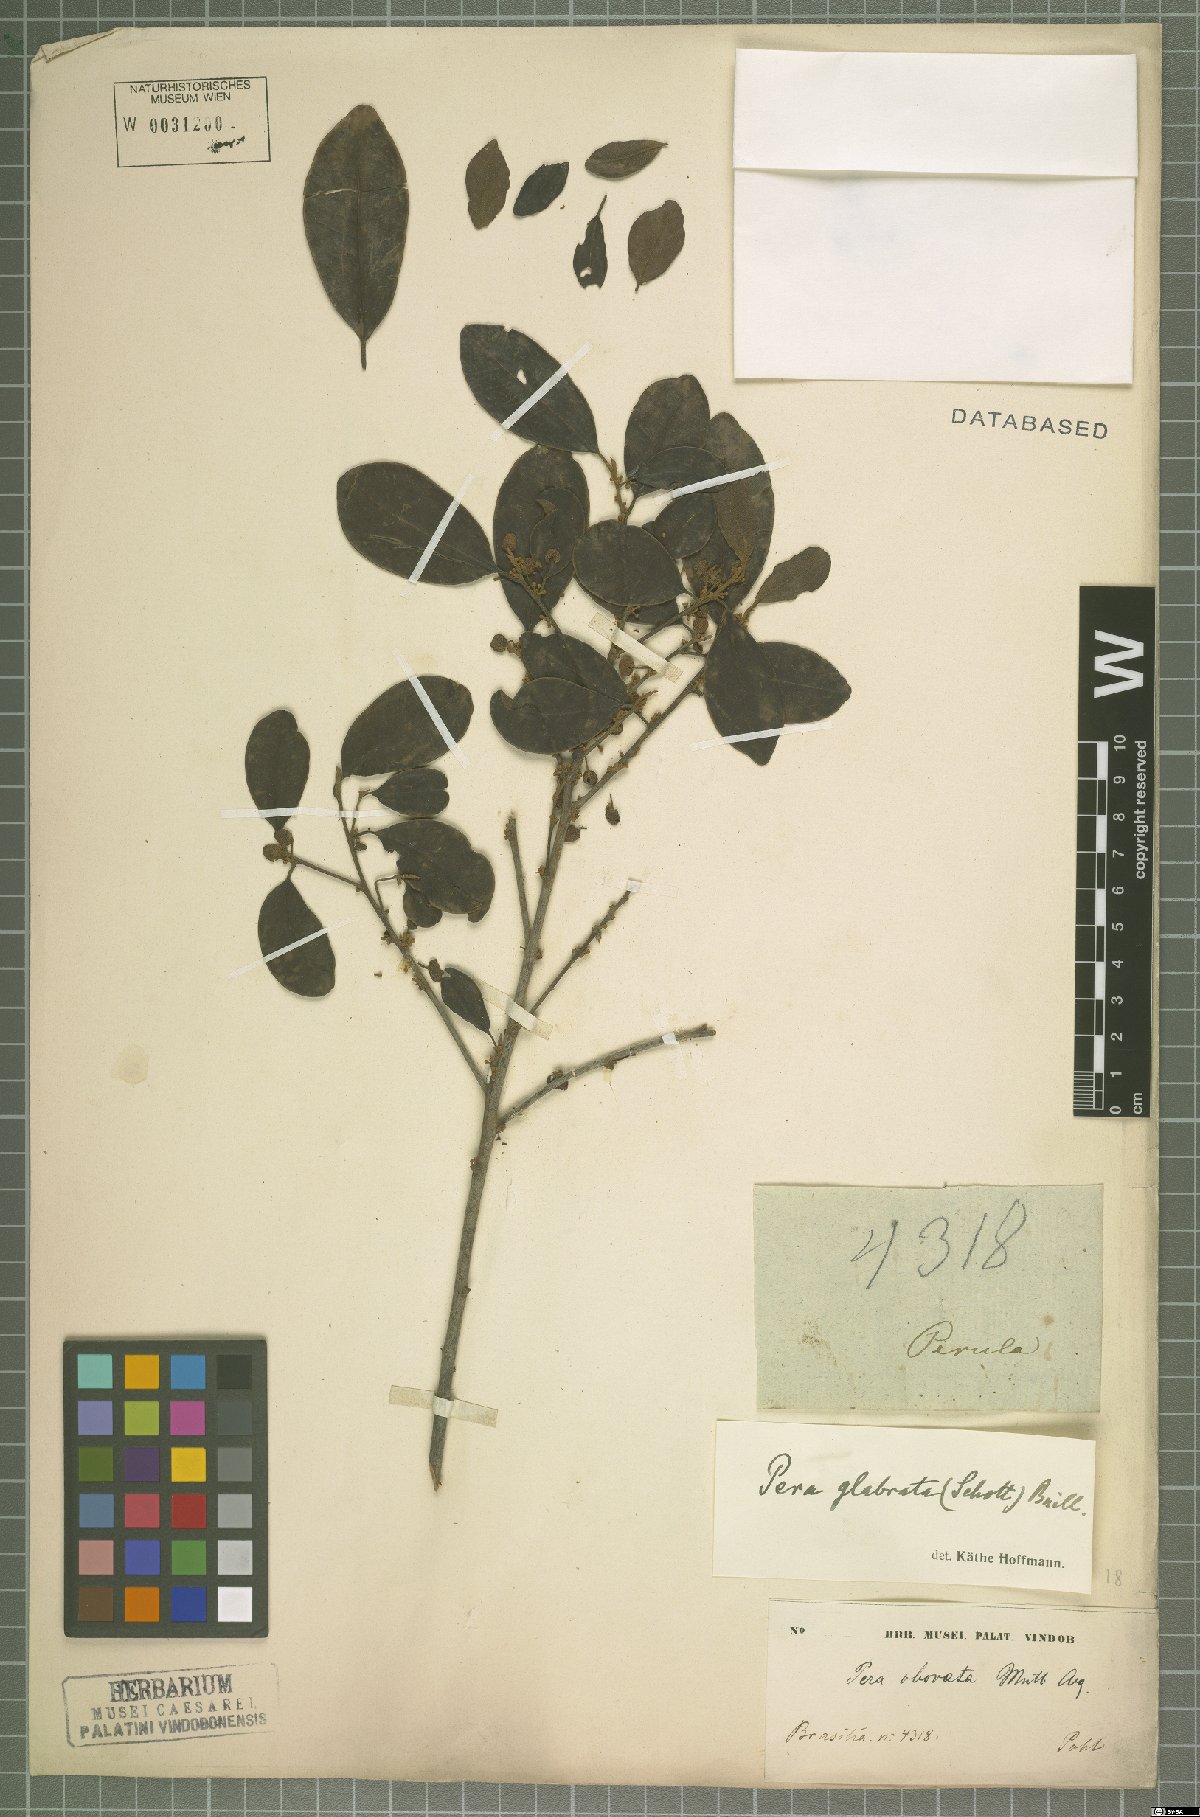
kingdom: Plantae
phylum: Tracheophyta
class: Magnoliopsida
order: Malpighiales
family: Peraceae
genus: Pera
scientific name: Pera glabrata
